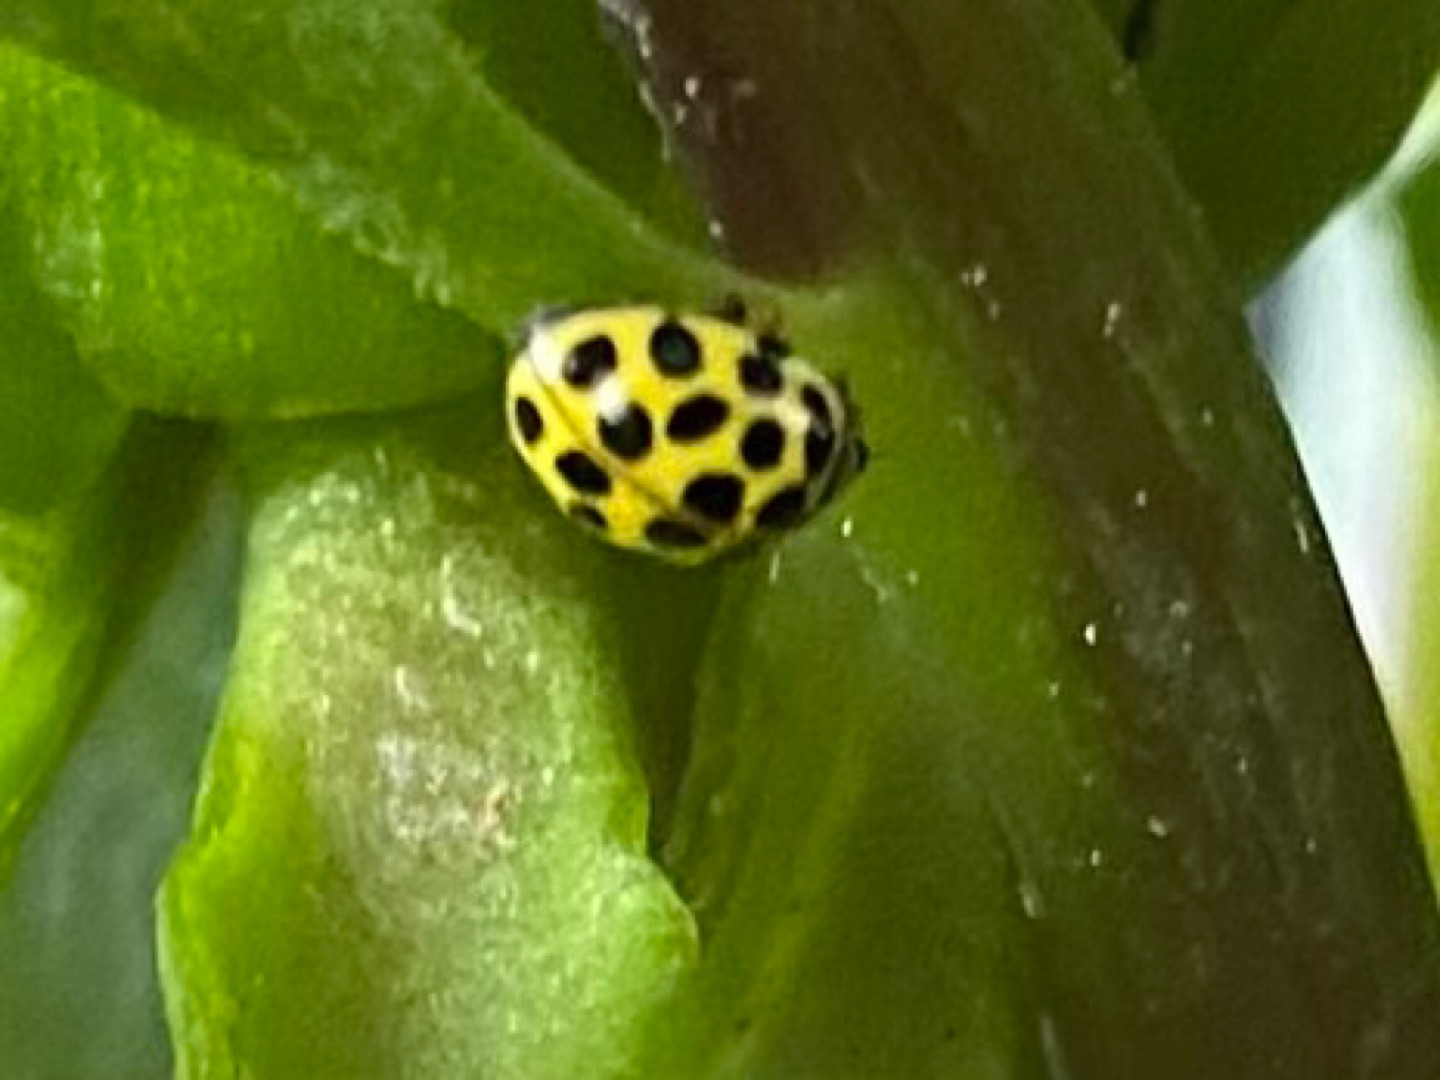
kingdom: Animalia
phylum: Arthropoda
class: Insecta
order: Coleoptera
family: Coccinellidae
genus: Psyllobora
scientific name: Psyllobora vigintiduopunctata
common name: Toogtyveplettet mariehøne
